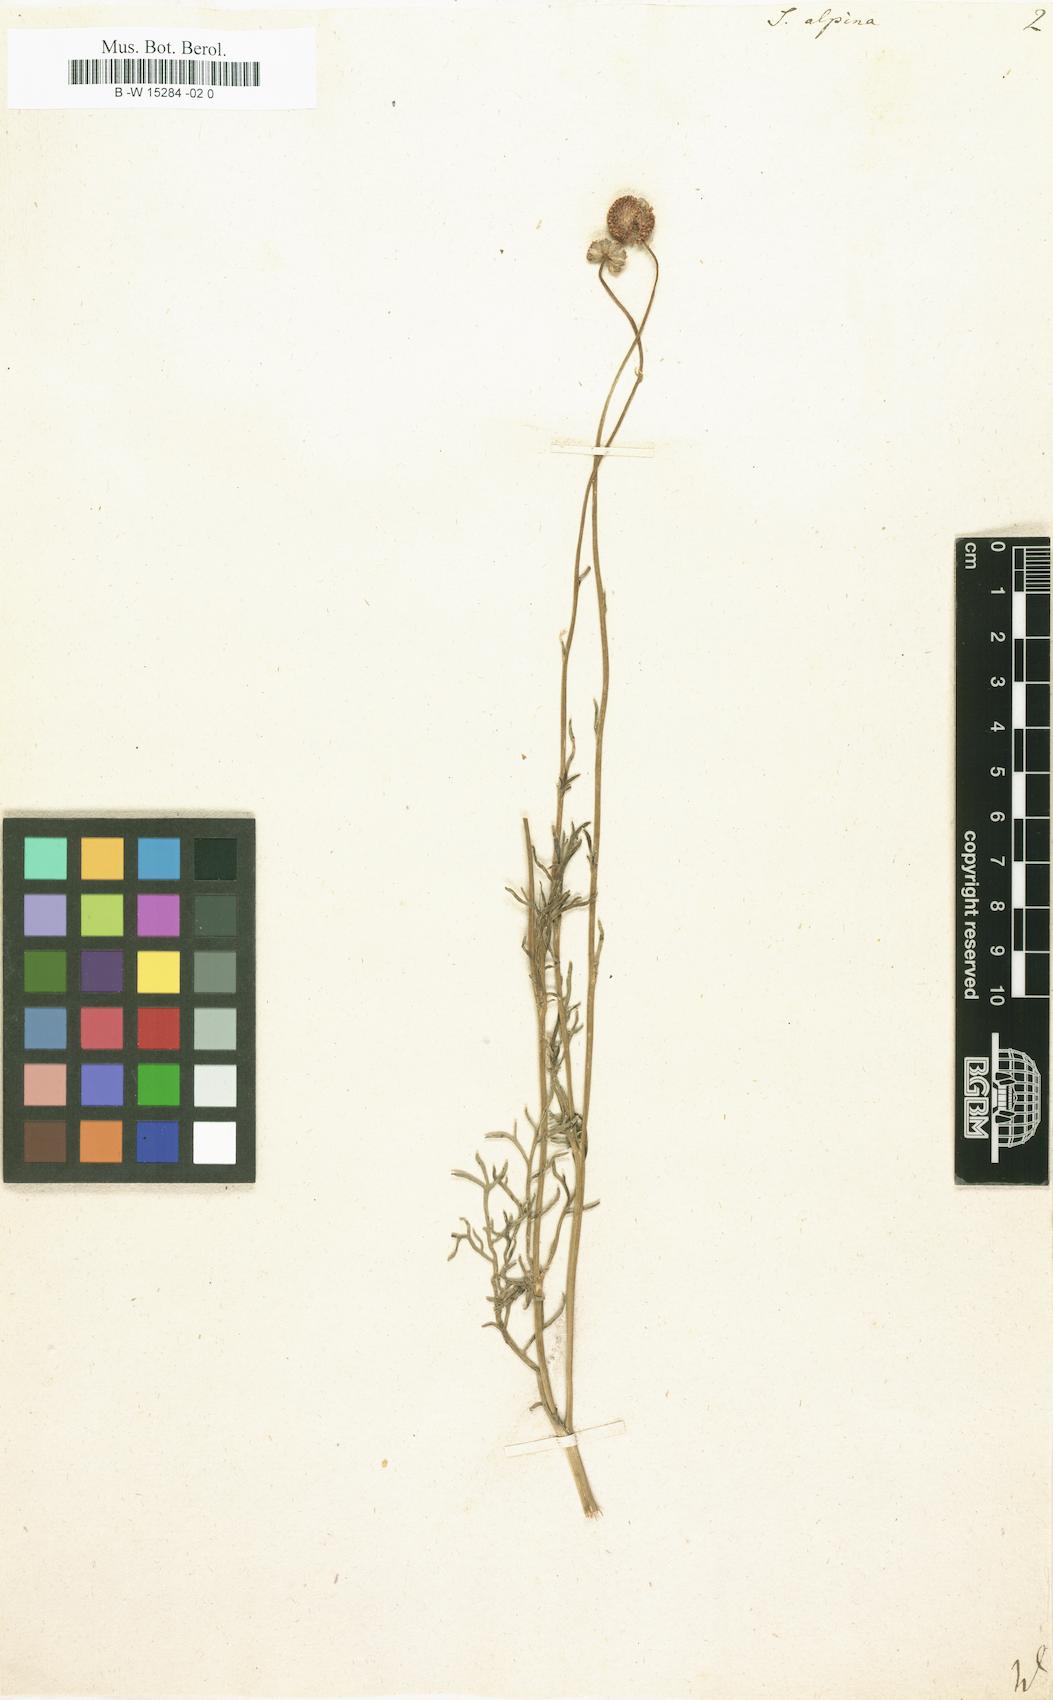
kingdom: Plantae
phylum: Tracheophyta
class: Magnoliopsida
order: Asterales
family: Asteraceae
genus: Lasiospermum
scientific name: Lasiospermum pedunculare
